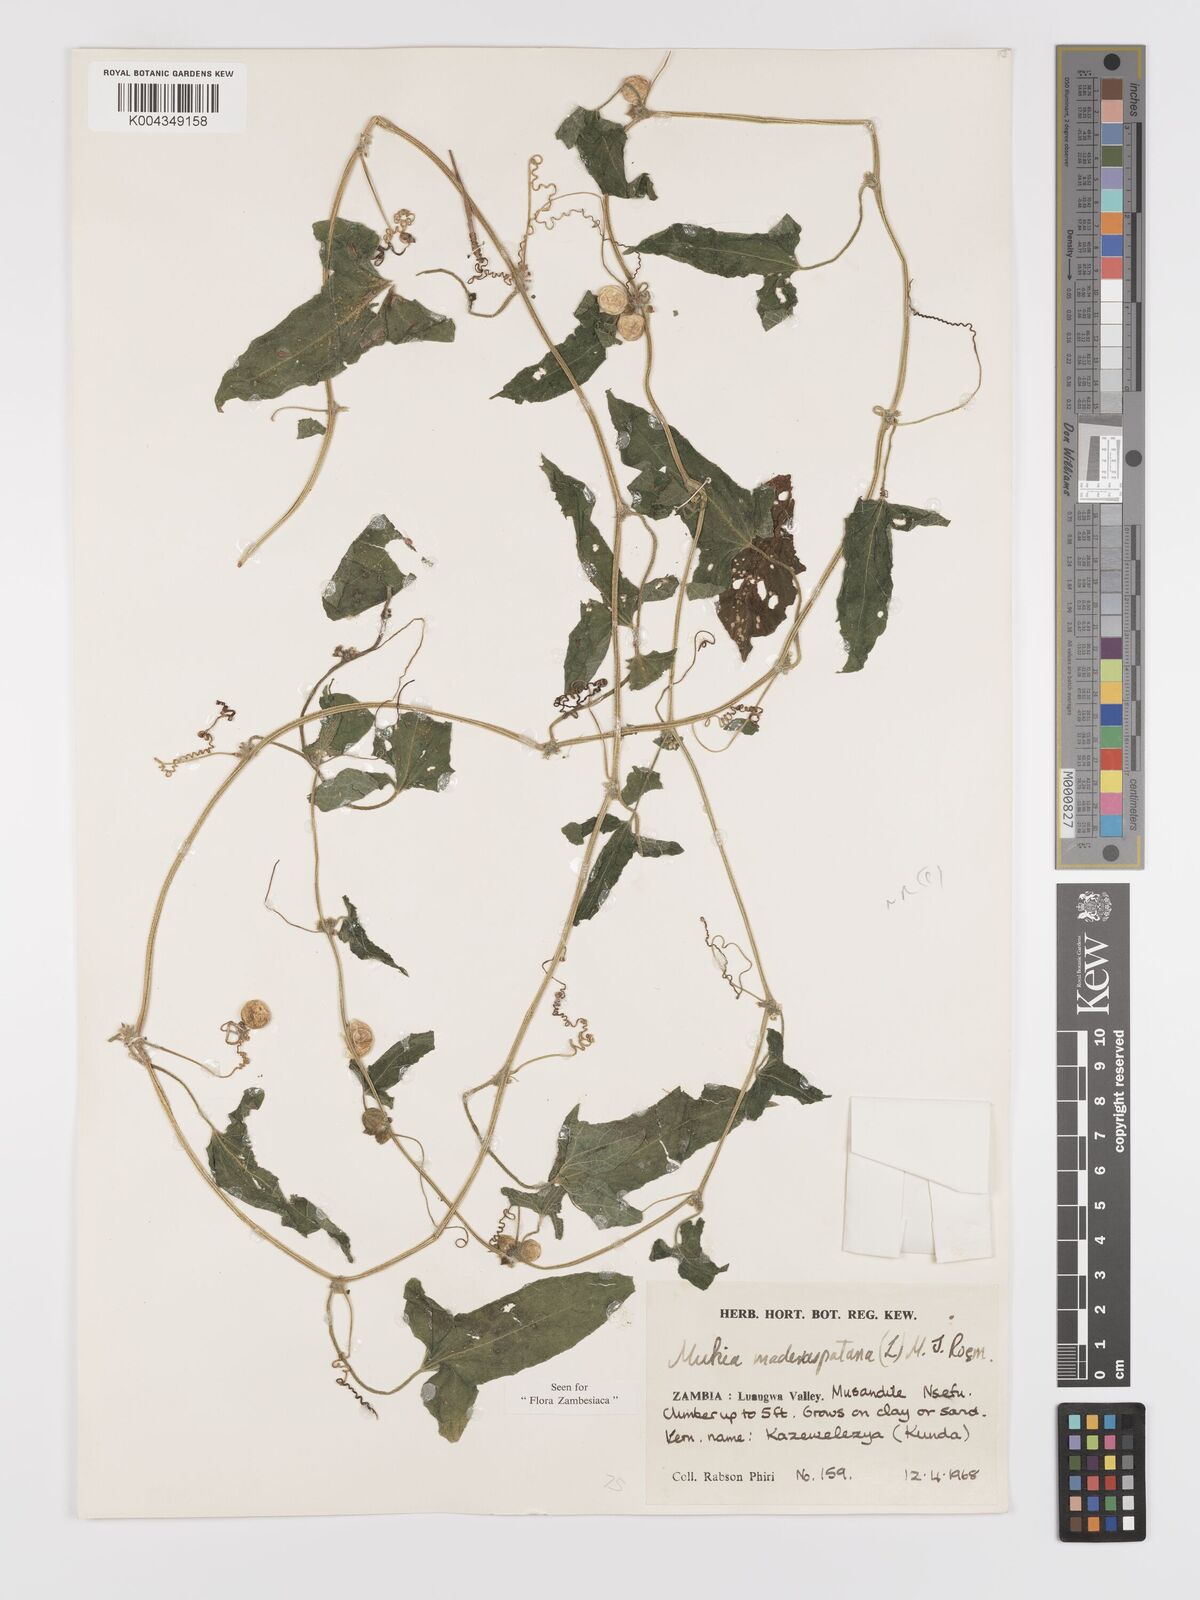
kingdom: Plantae
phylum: Tracheophyta
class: Magnoliopsida
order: Cucurbitales
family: Cucurbitaceae
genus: Cucumis
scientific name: Cucumis maderaspatanus
